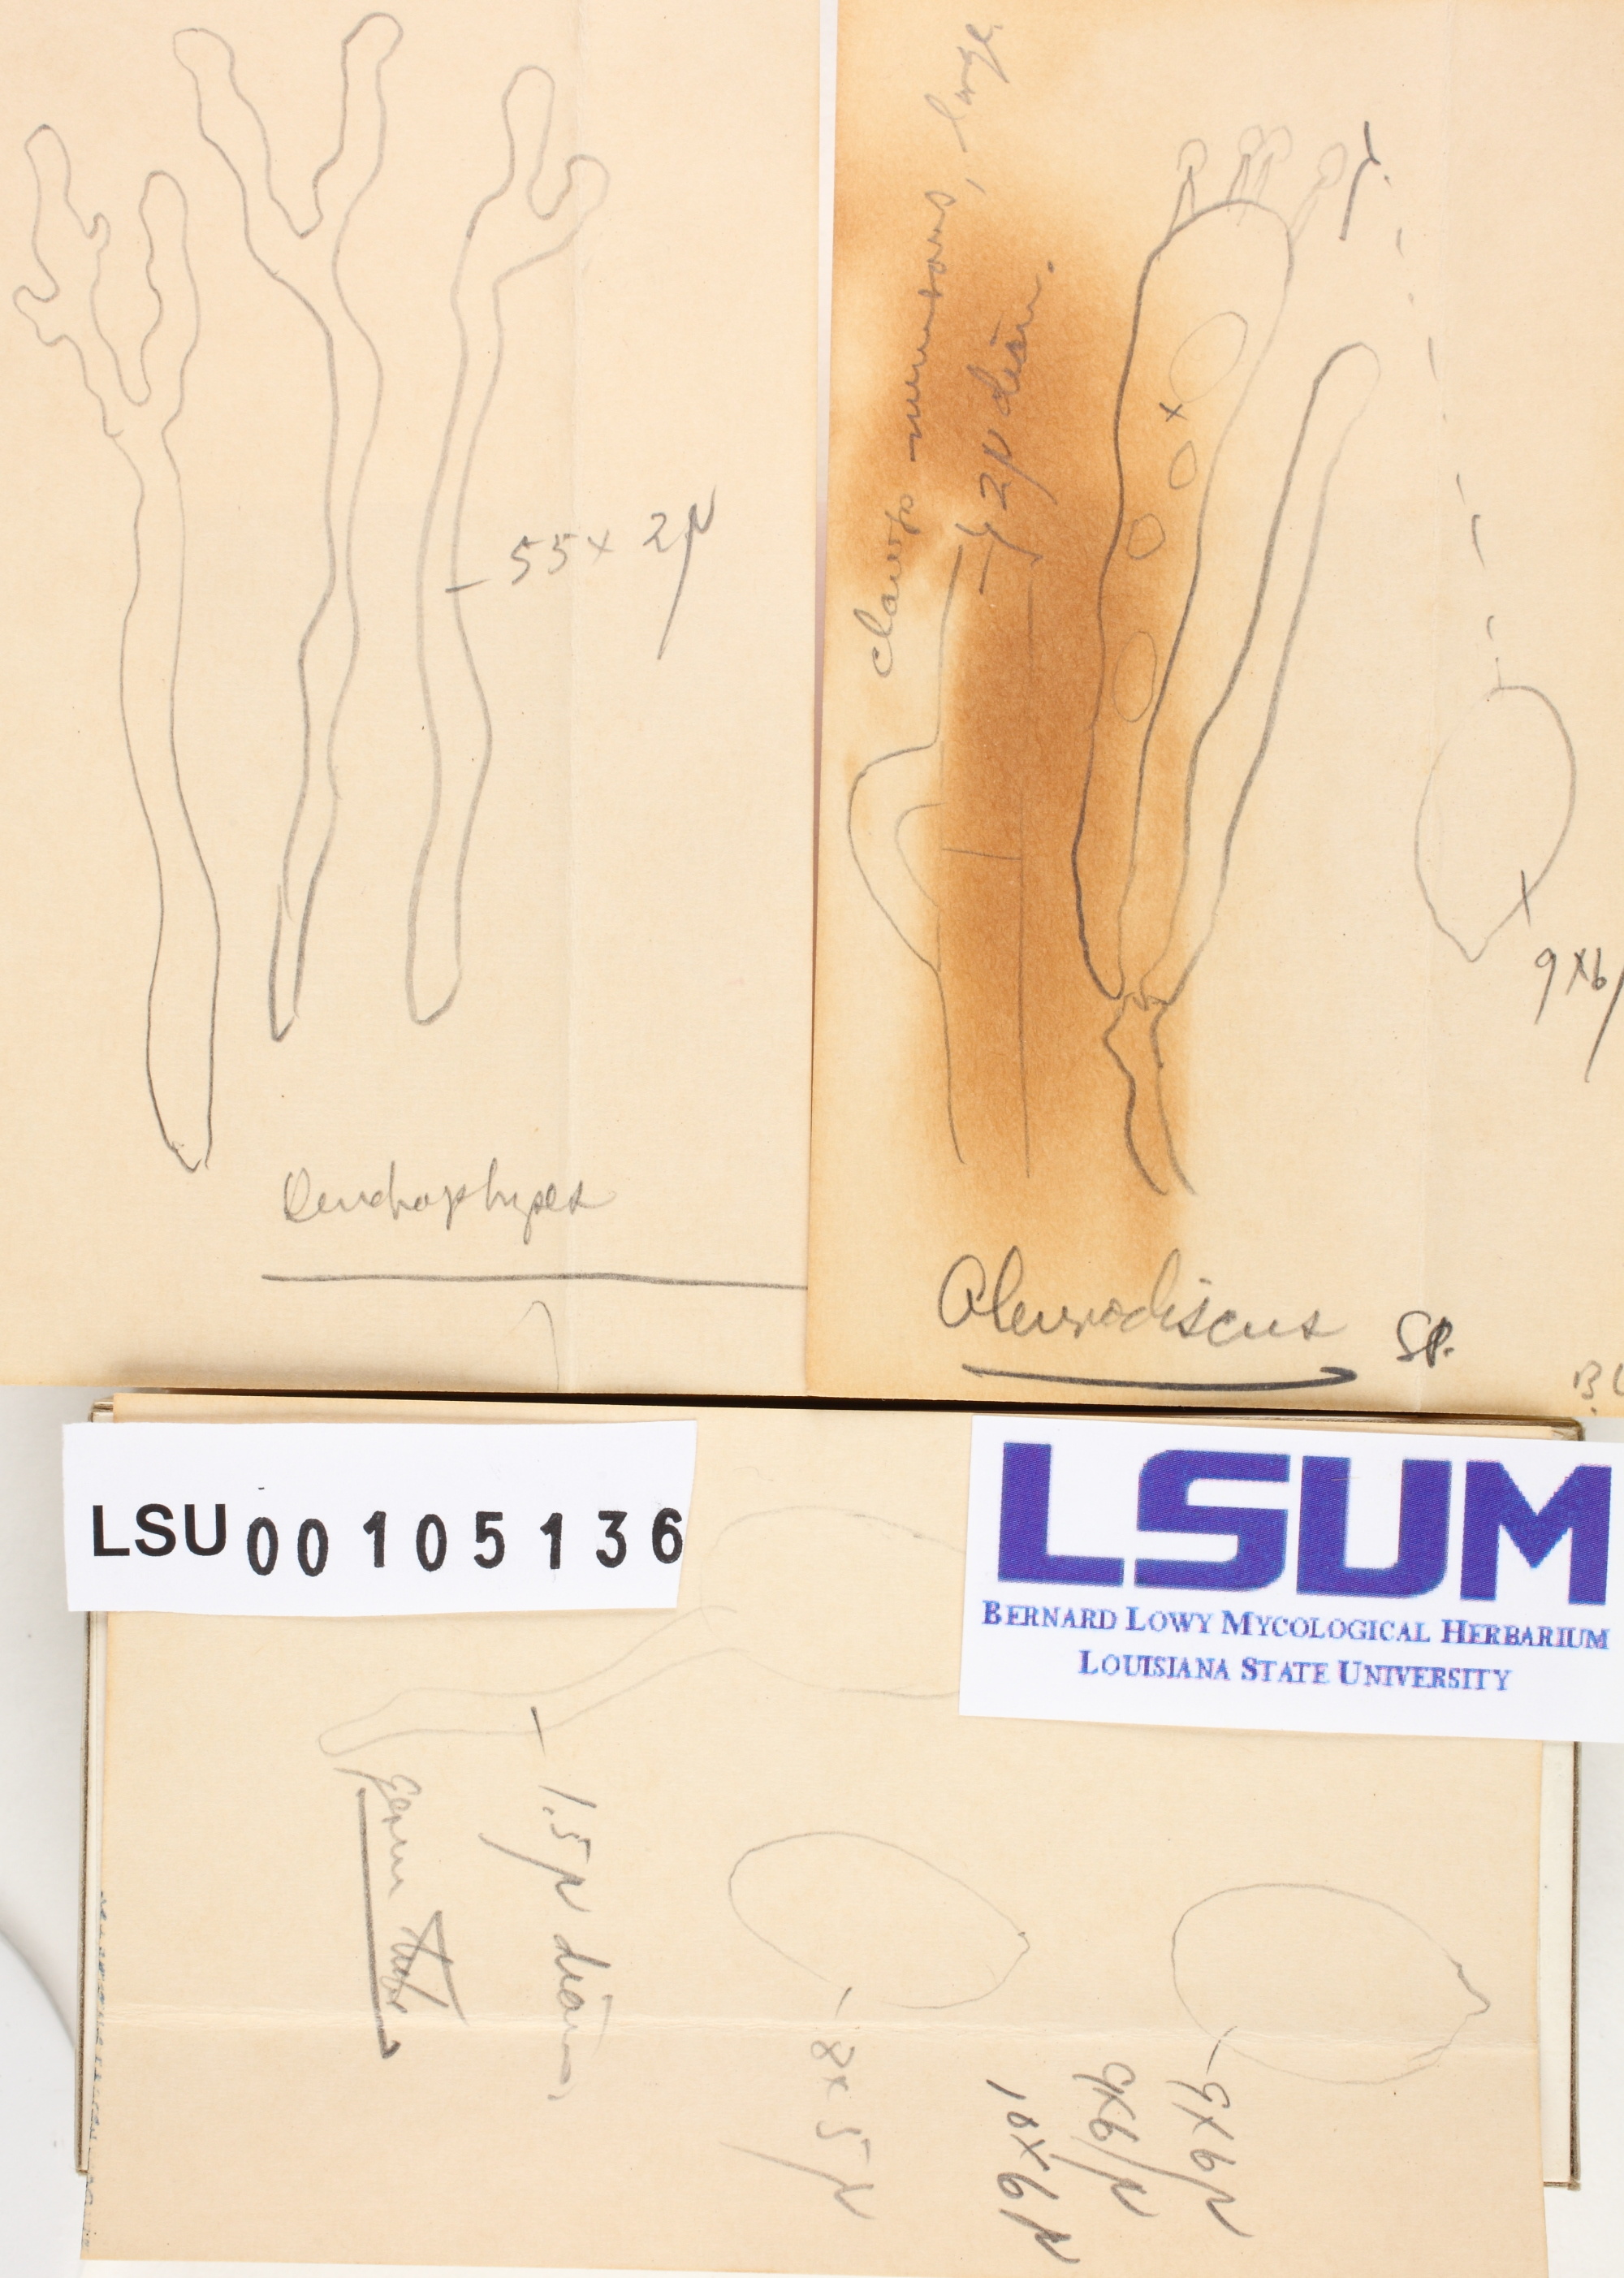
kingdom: Fungi
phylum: Basidiomycota
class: Agaricomycetes
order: Russulales
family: Stereaceae
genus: Aleurodiscus
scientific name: Aleurodiscus
